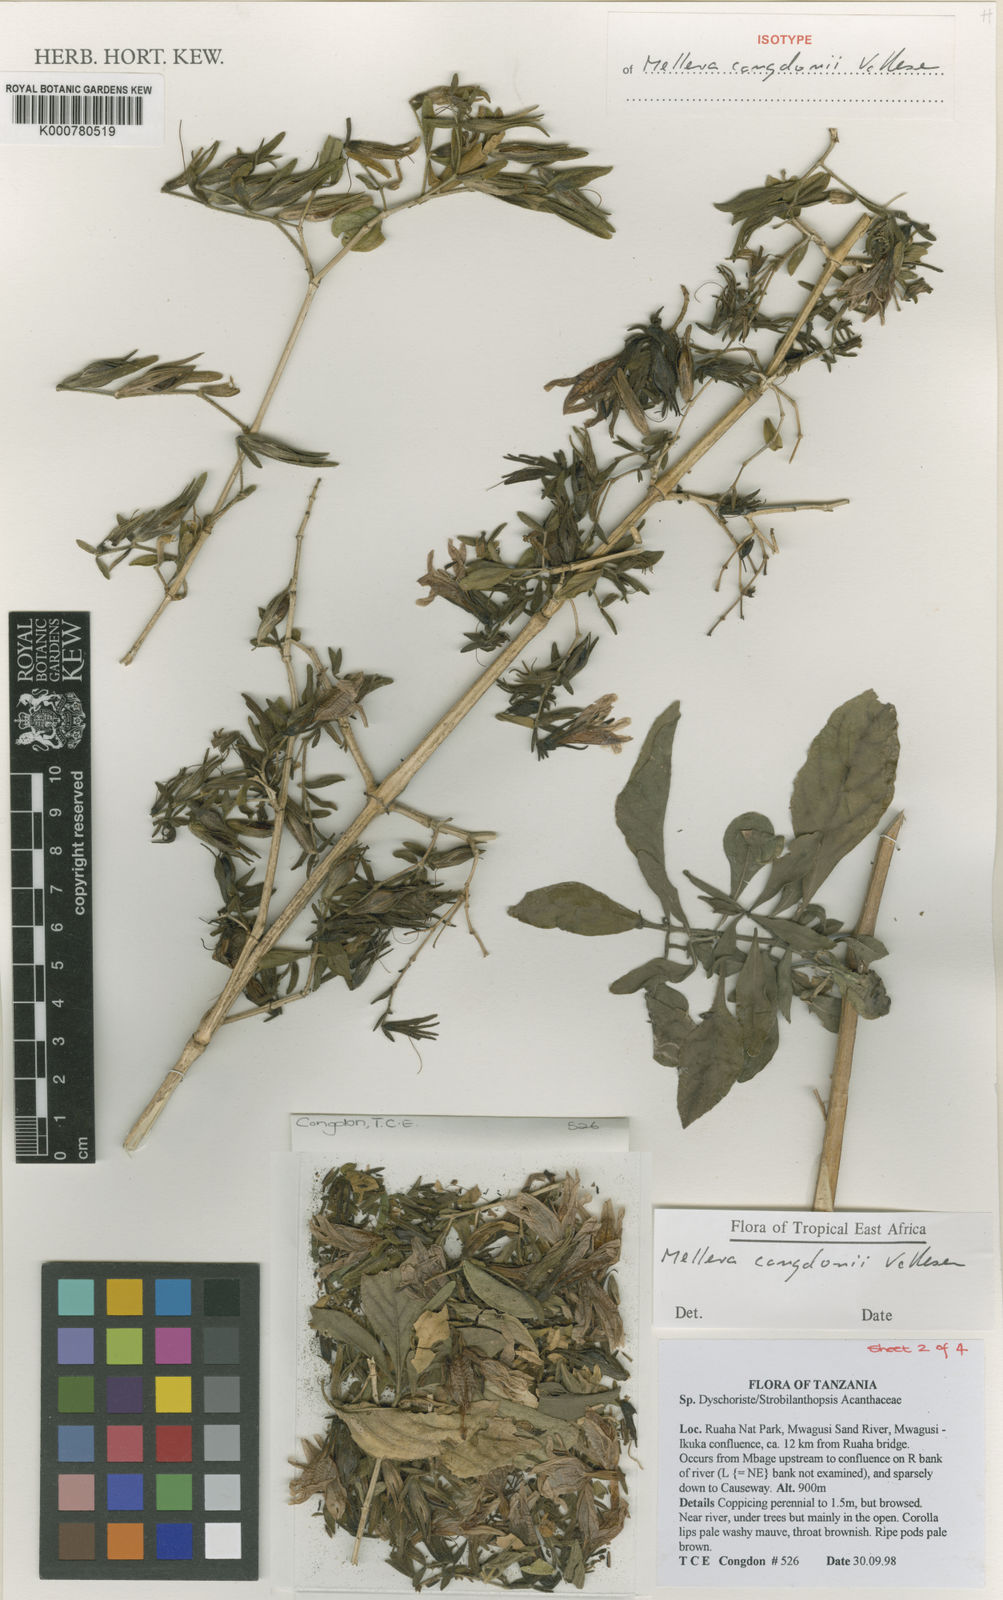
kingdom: Plantae
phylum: Tracheophyta
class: Magnoliopsida
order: Lamiales
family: Acanthaceae
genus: Mellera
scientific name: Mellera congdonii
